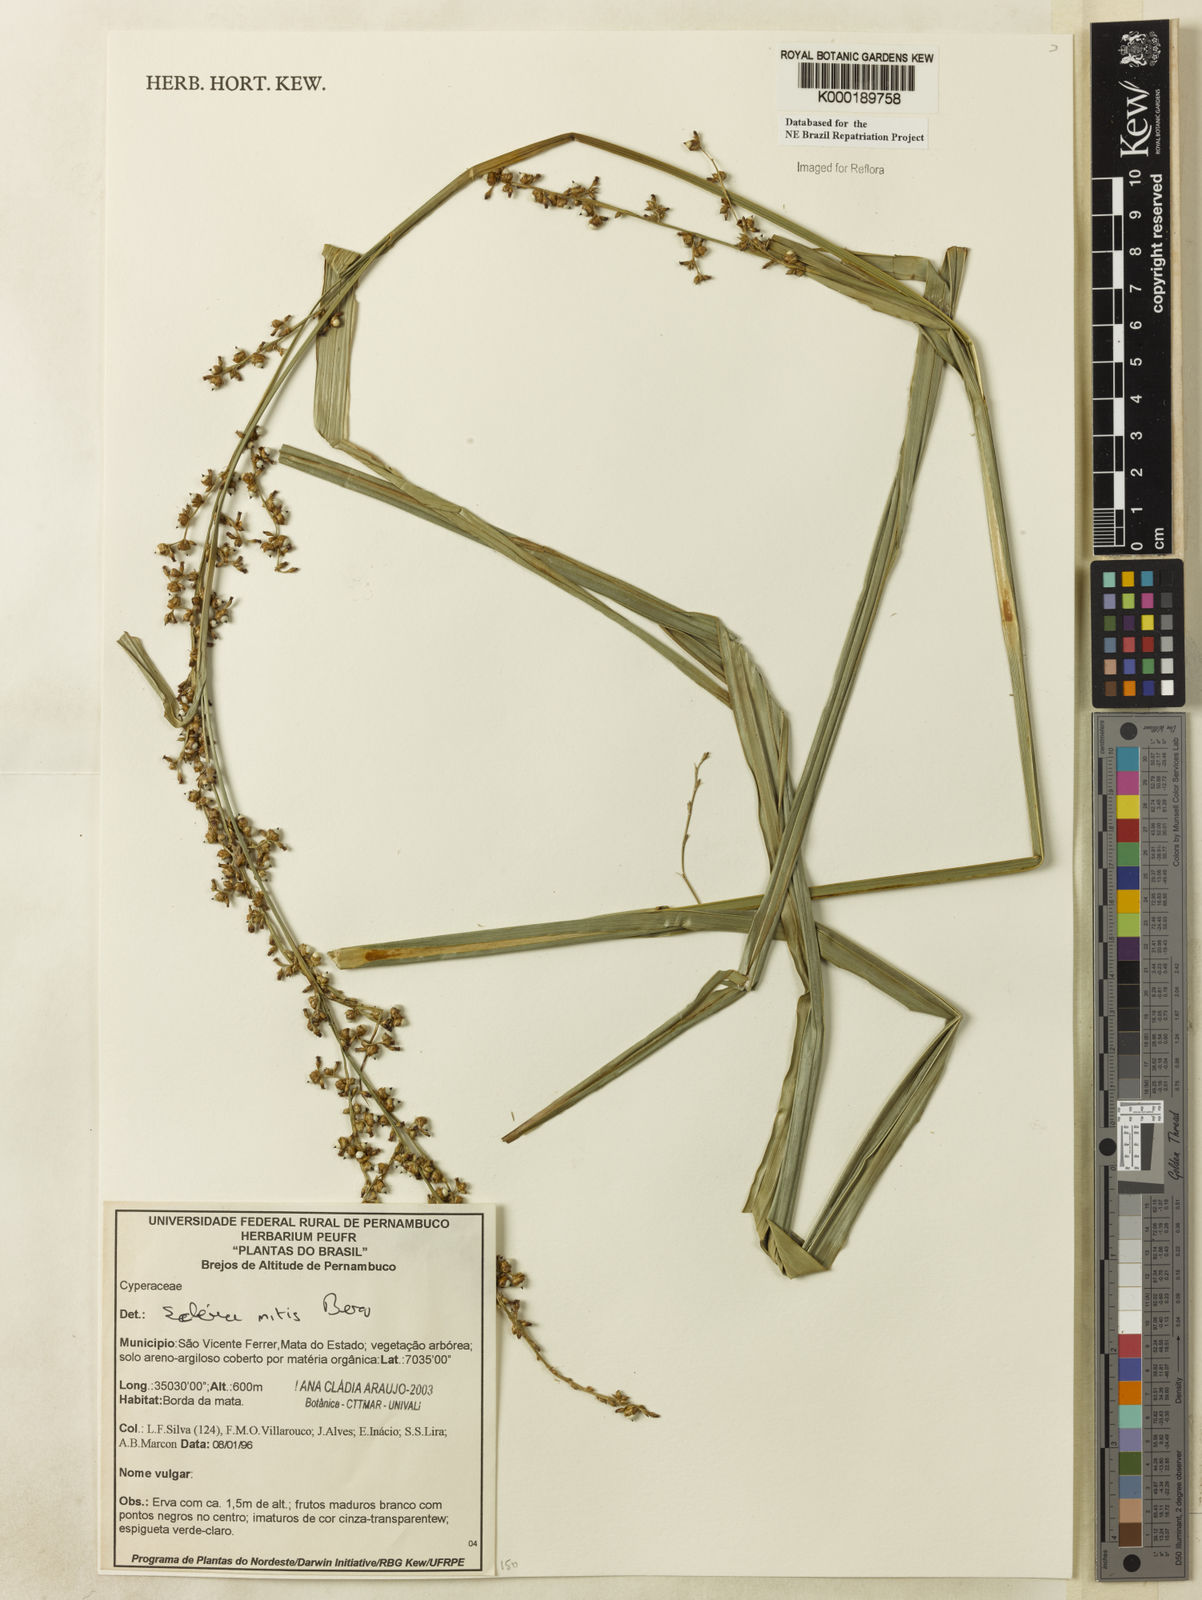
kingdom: Plantae
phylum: Tracheophyta
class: Liliopsida
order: Poales
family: Cyperaceae
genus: Scleria
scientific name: Scleria mitis
